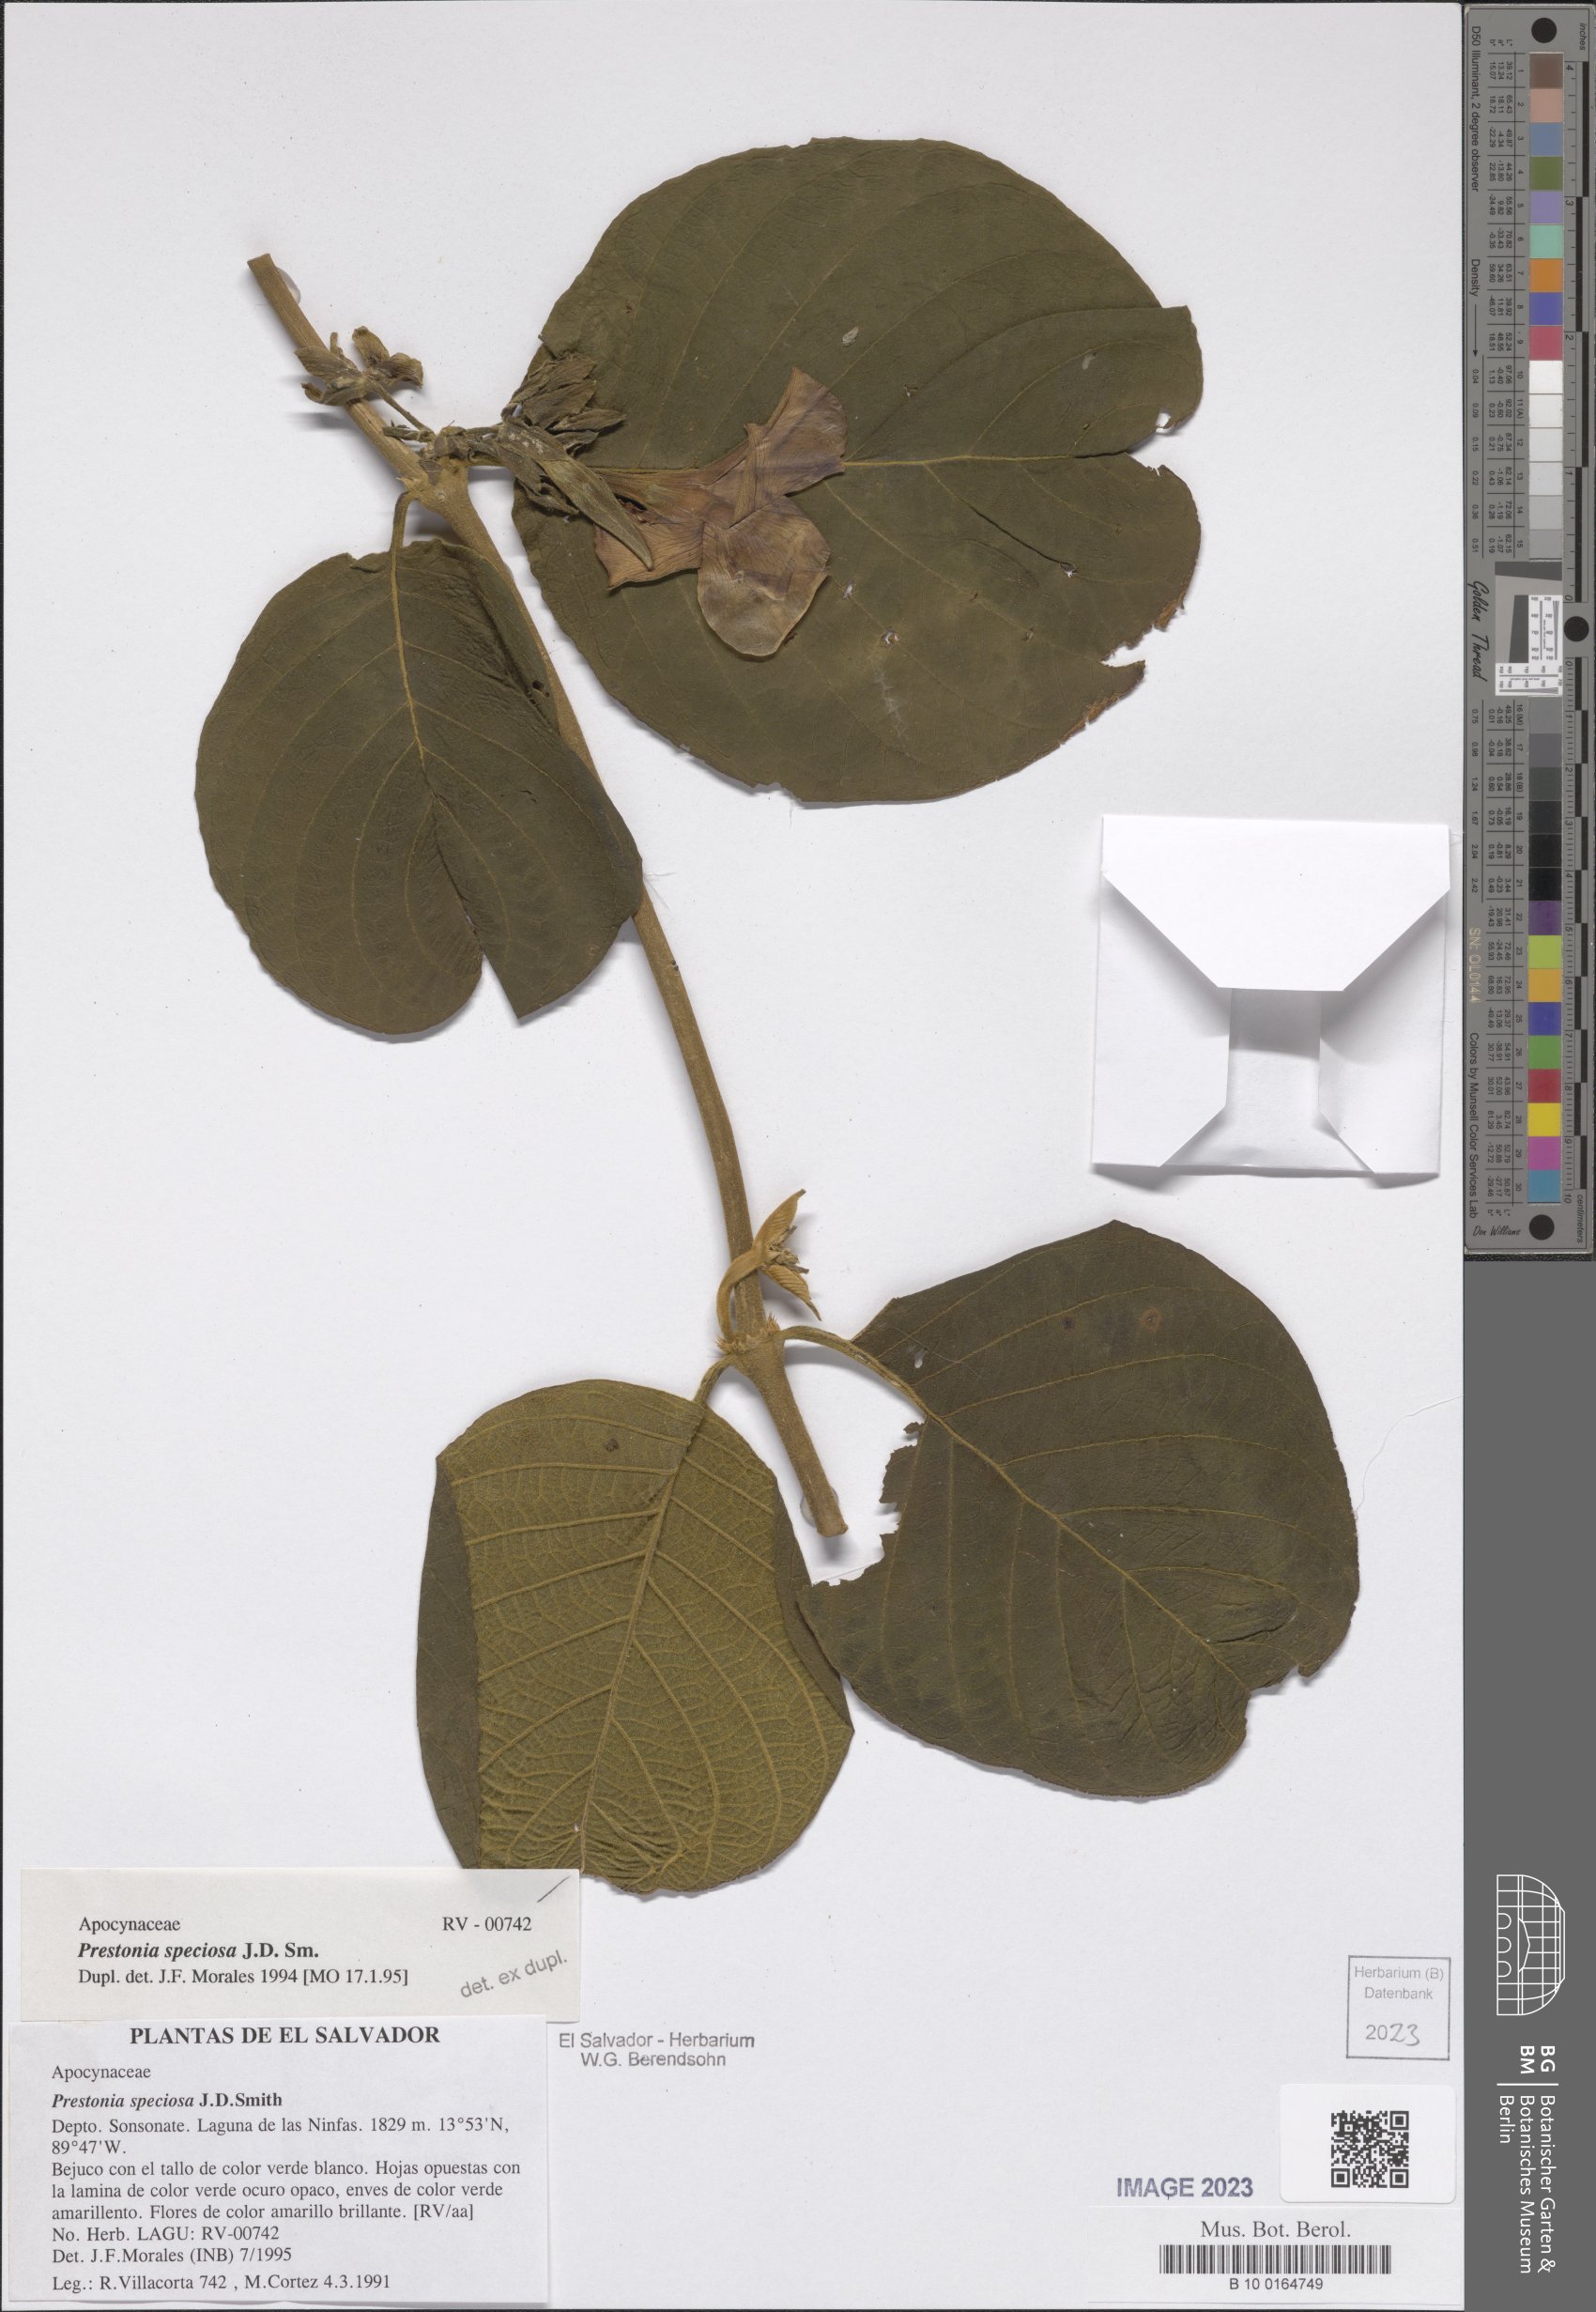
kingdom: Plantae
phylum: Tracheophyta
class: Magnoliopsida
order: Gentianales
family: Apocynaceae
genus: Prestonia
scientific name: Prestonia speciosa
